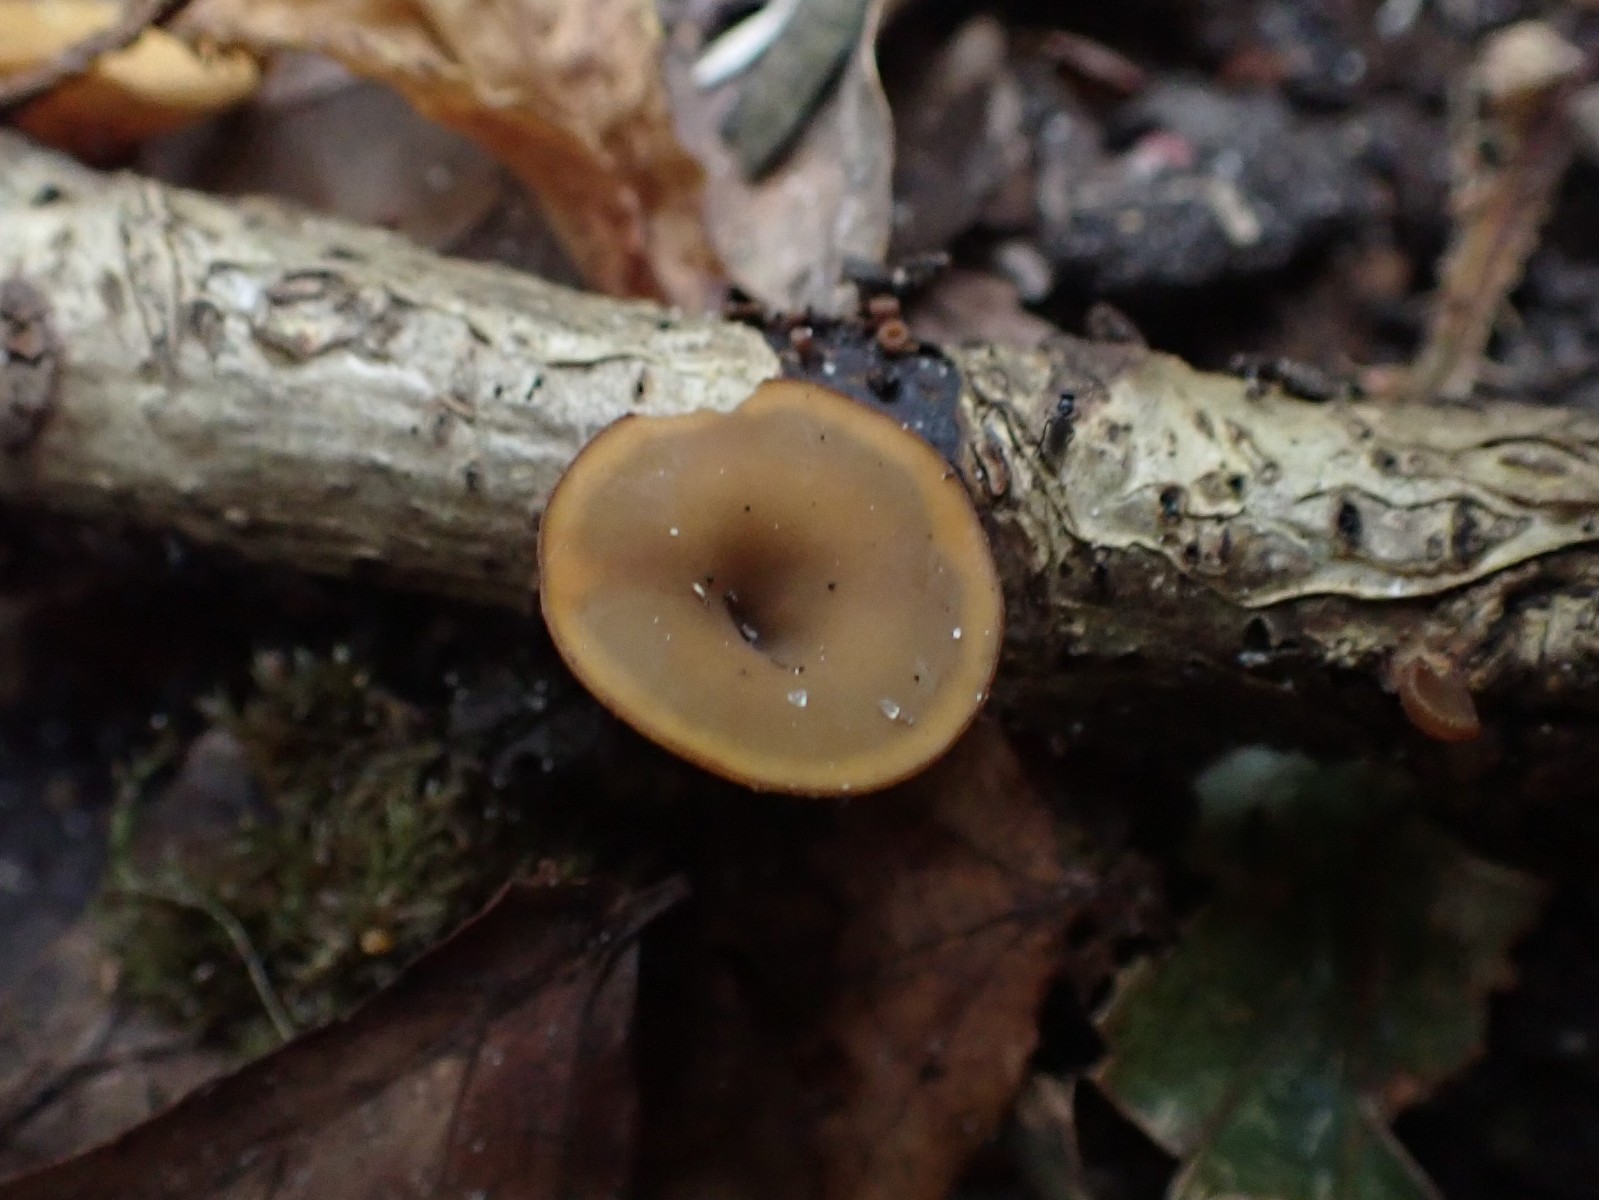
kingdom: Fungi
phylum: Ascomycota
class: Leotiomycetes
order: Helotiales
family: Rutstroemiaceae
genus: Rutstroemia
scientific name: Rutstroemia firma
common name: gren-brunskive
